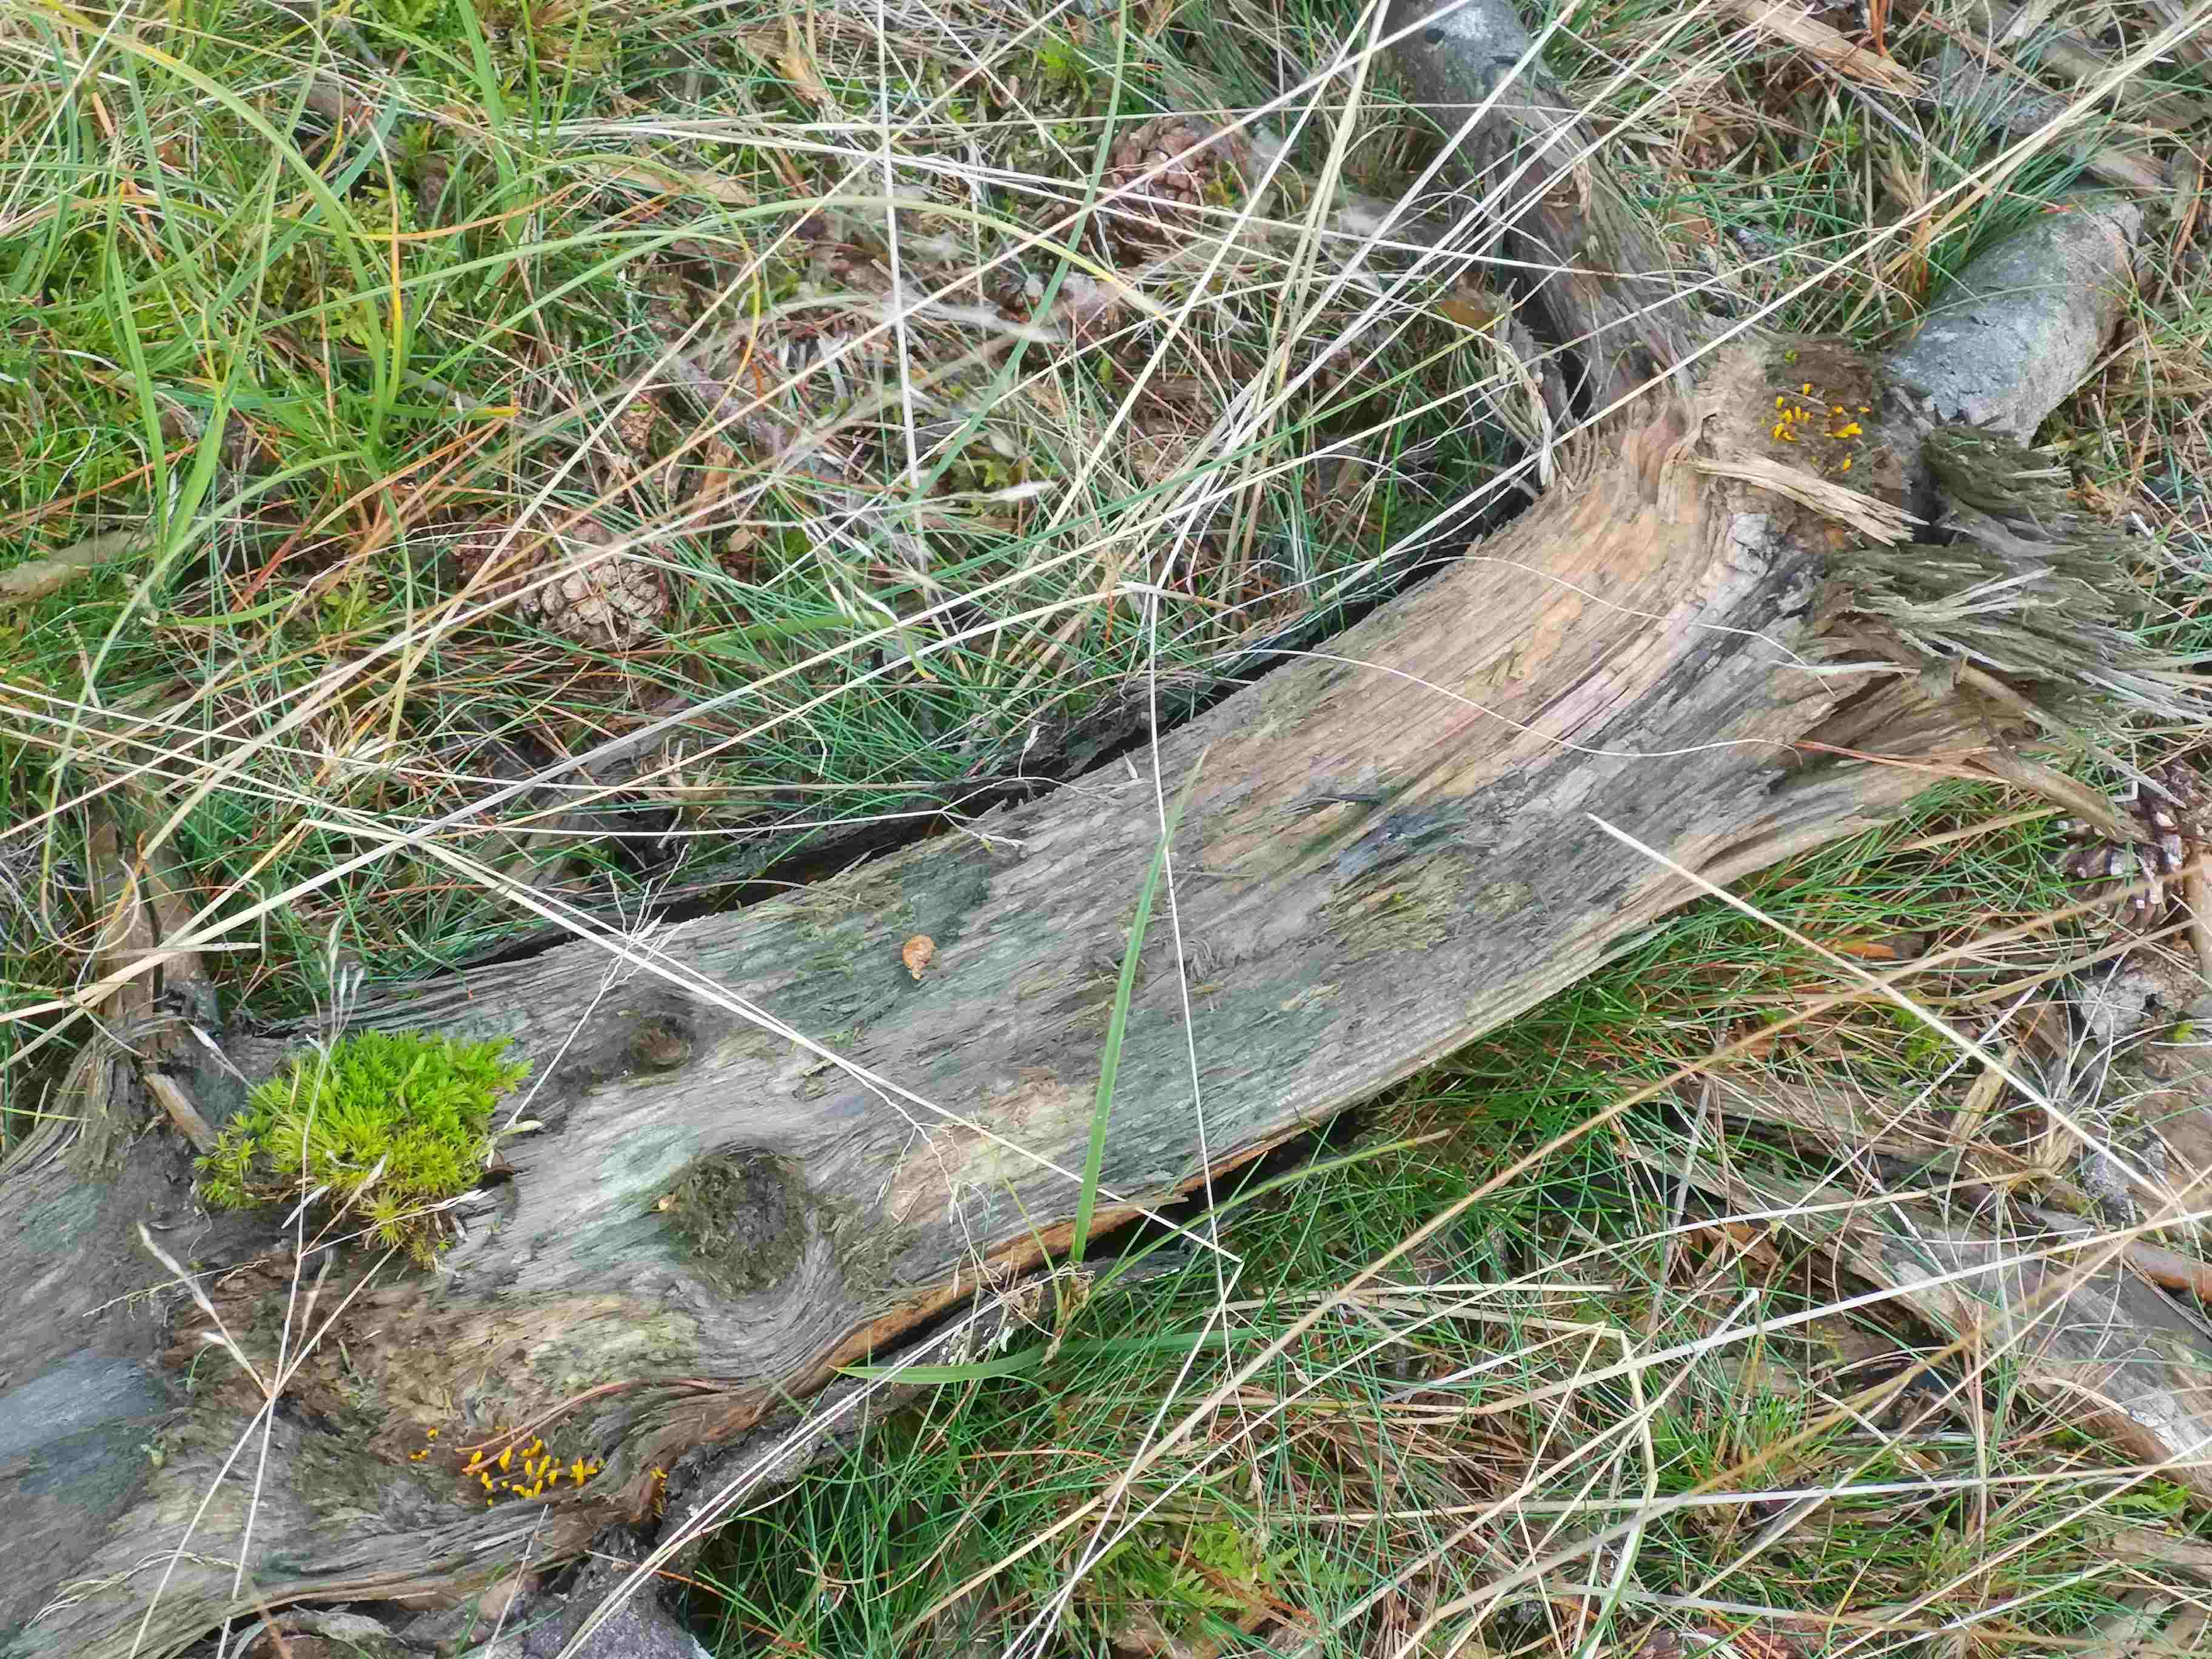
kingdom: Fungi
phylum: Basidiomycota
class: Dacrymycetes
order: Dacrymycetales
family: Dacrymycetaceae
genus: Calocera
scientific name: Calocera cornea
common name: liden guldgaffel
